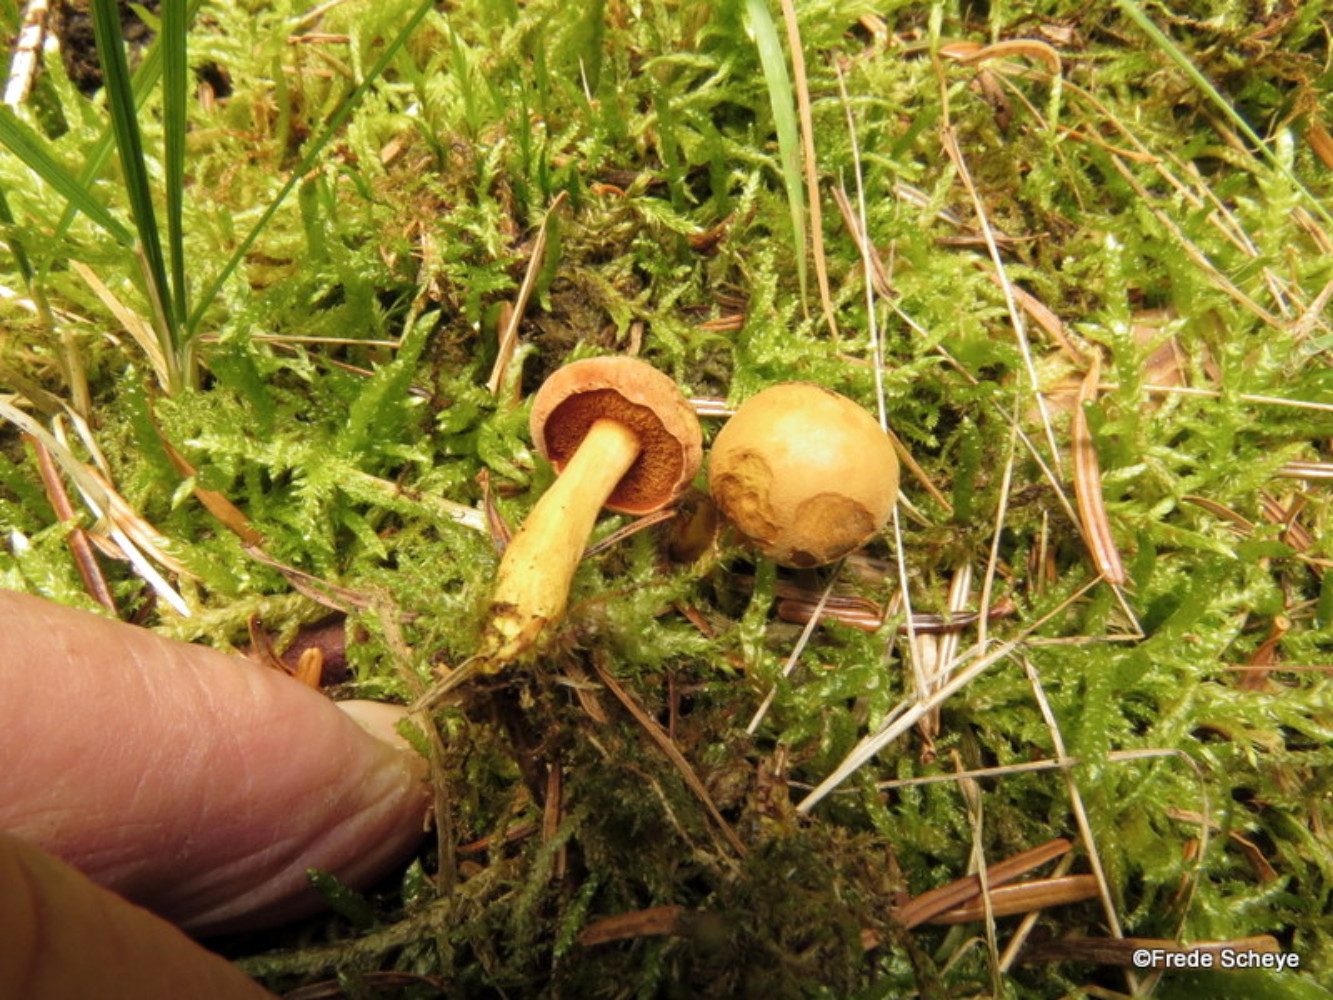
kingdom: Fungi
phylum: Basidiomycota
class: Agaricomycetes
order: Boletales
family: Boletaceae
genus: Chalciporus
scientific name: Chalciporus piperatus
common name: peberrørhat
